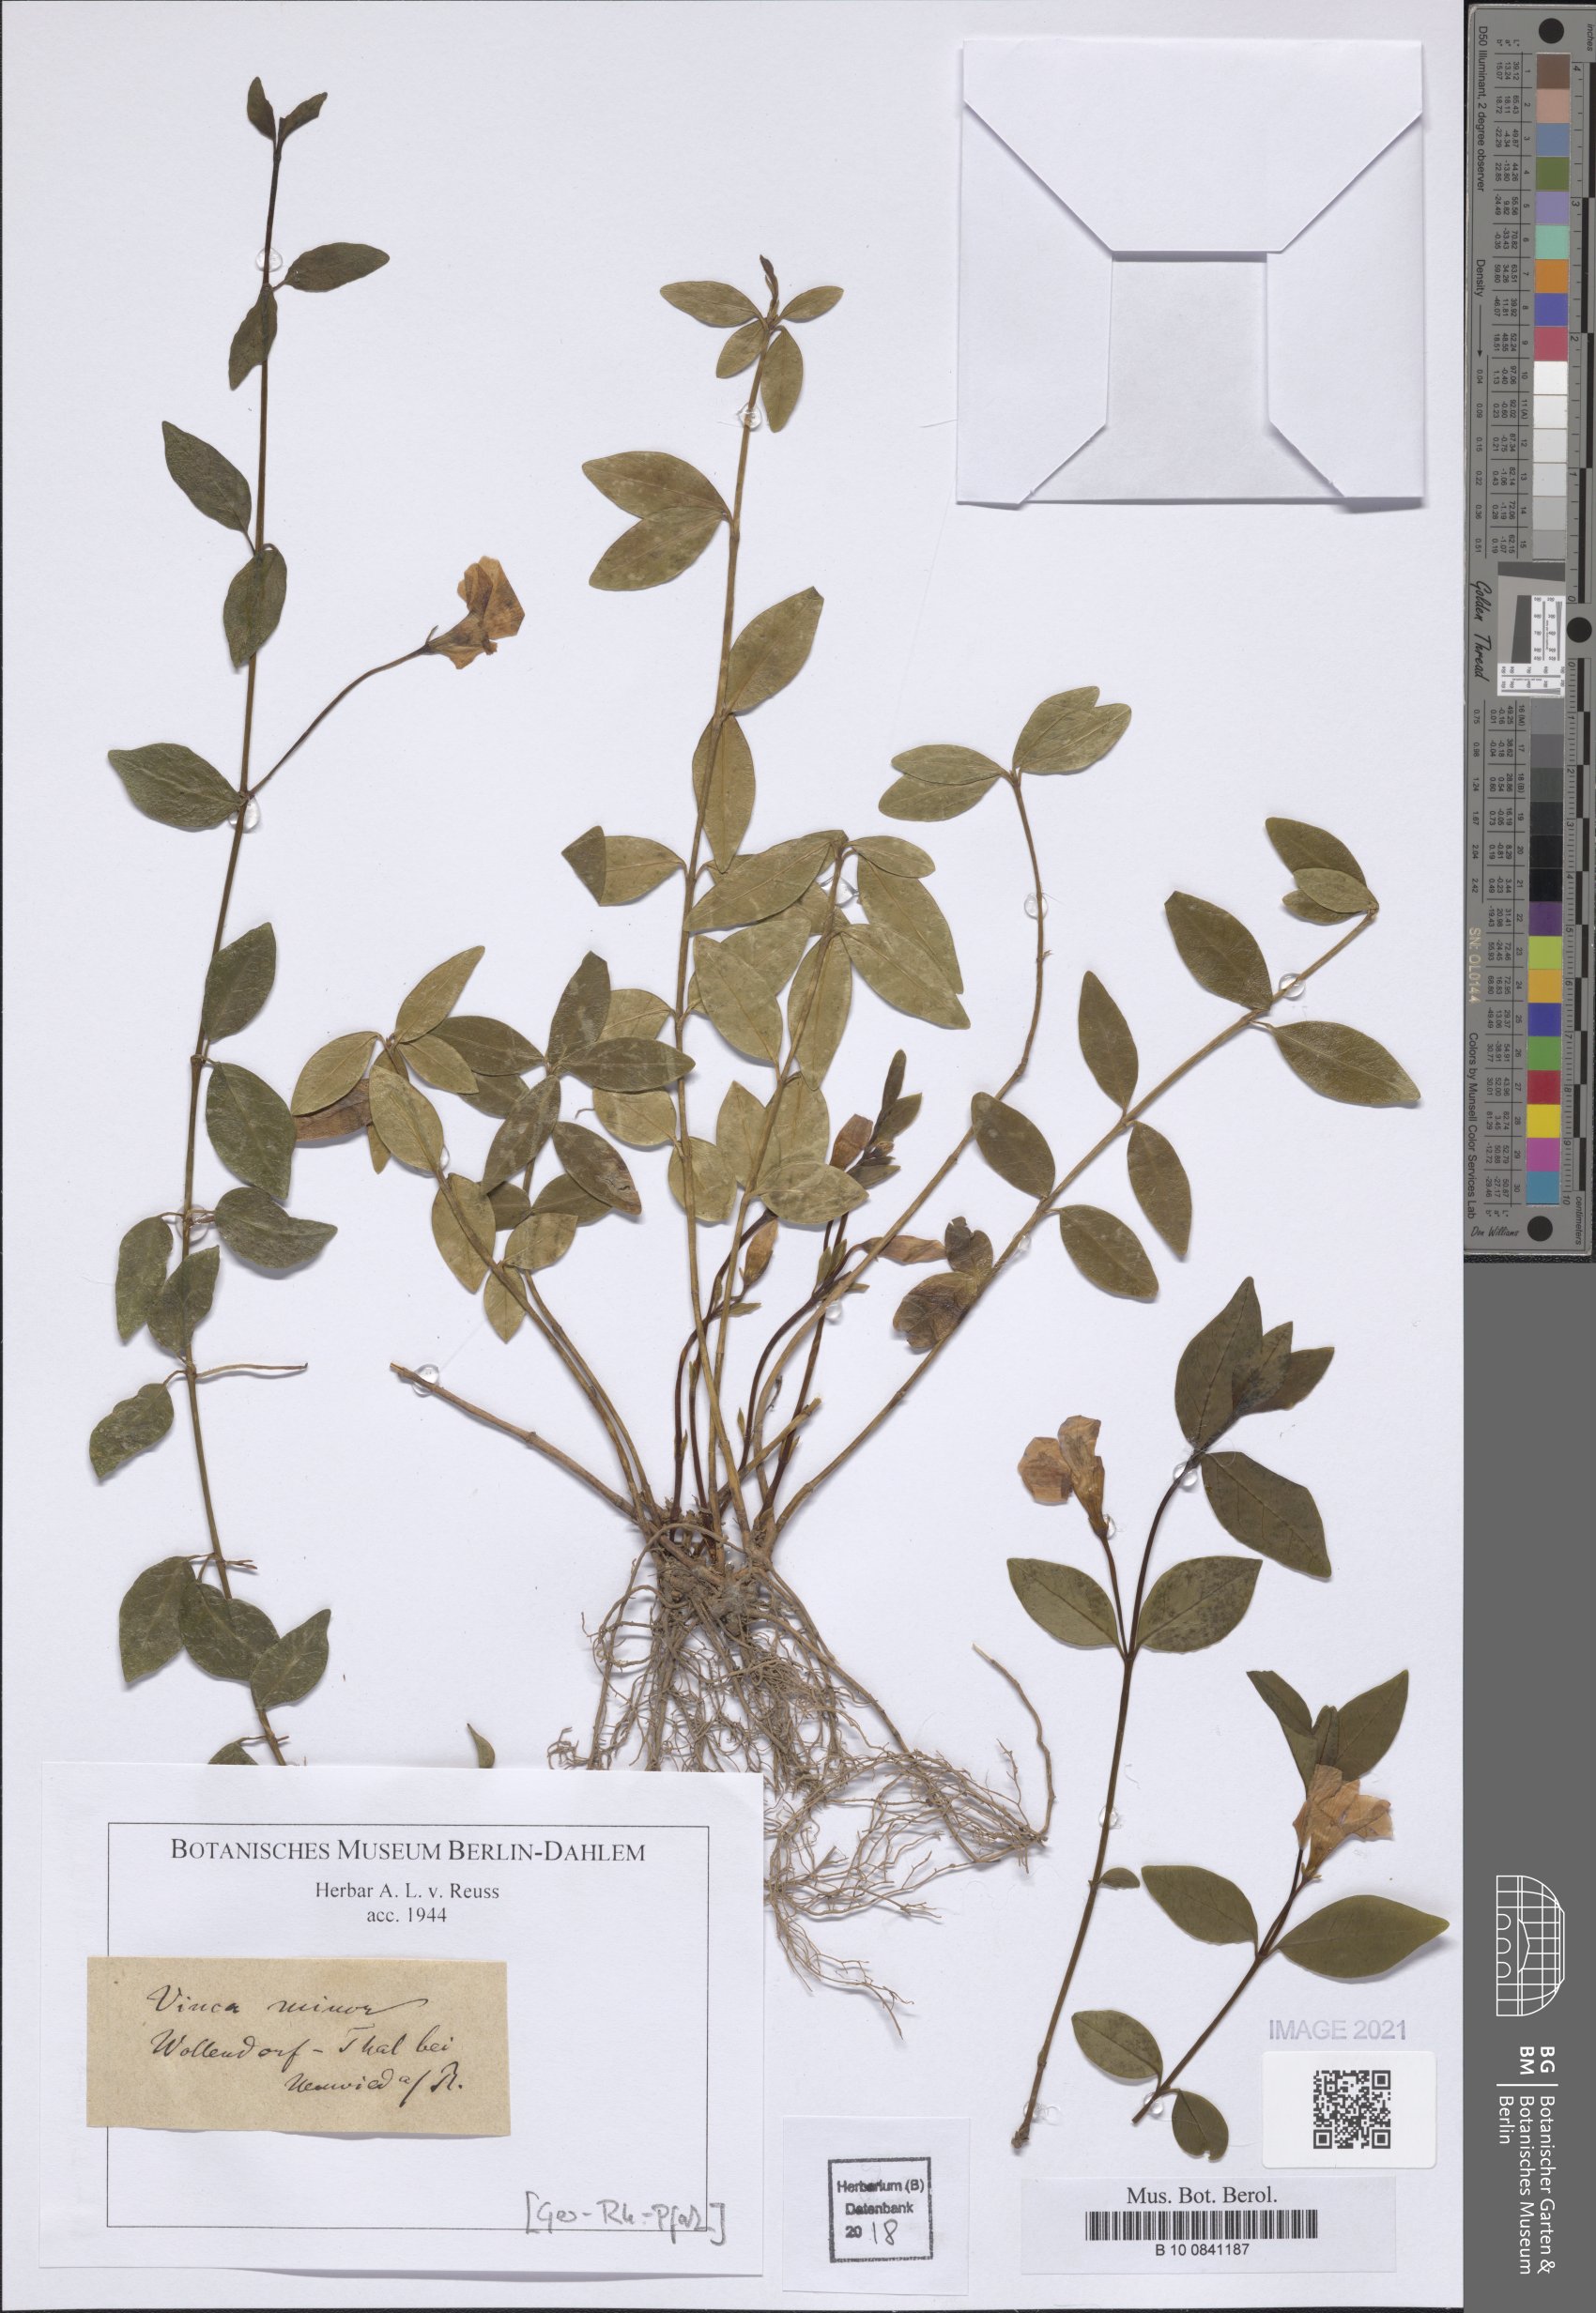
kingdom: Plantae
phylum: Tracheophyta
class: Magnoliopsida
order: Gentianales
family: Apocynaceae
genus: Vinca
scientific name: Vinca minor
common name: Lesser periwinkle
